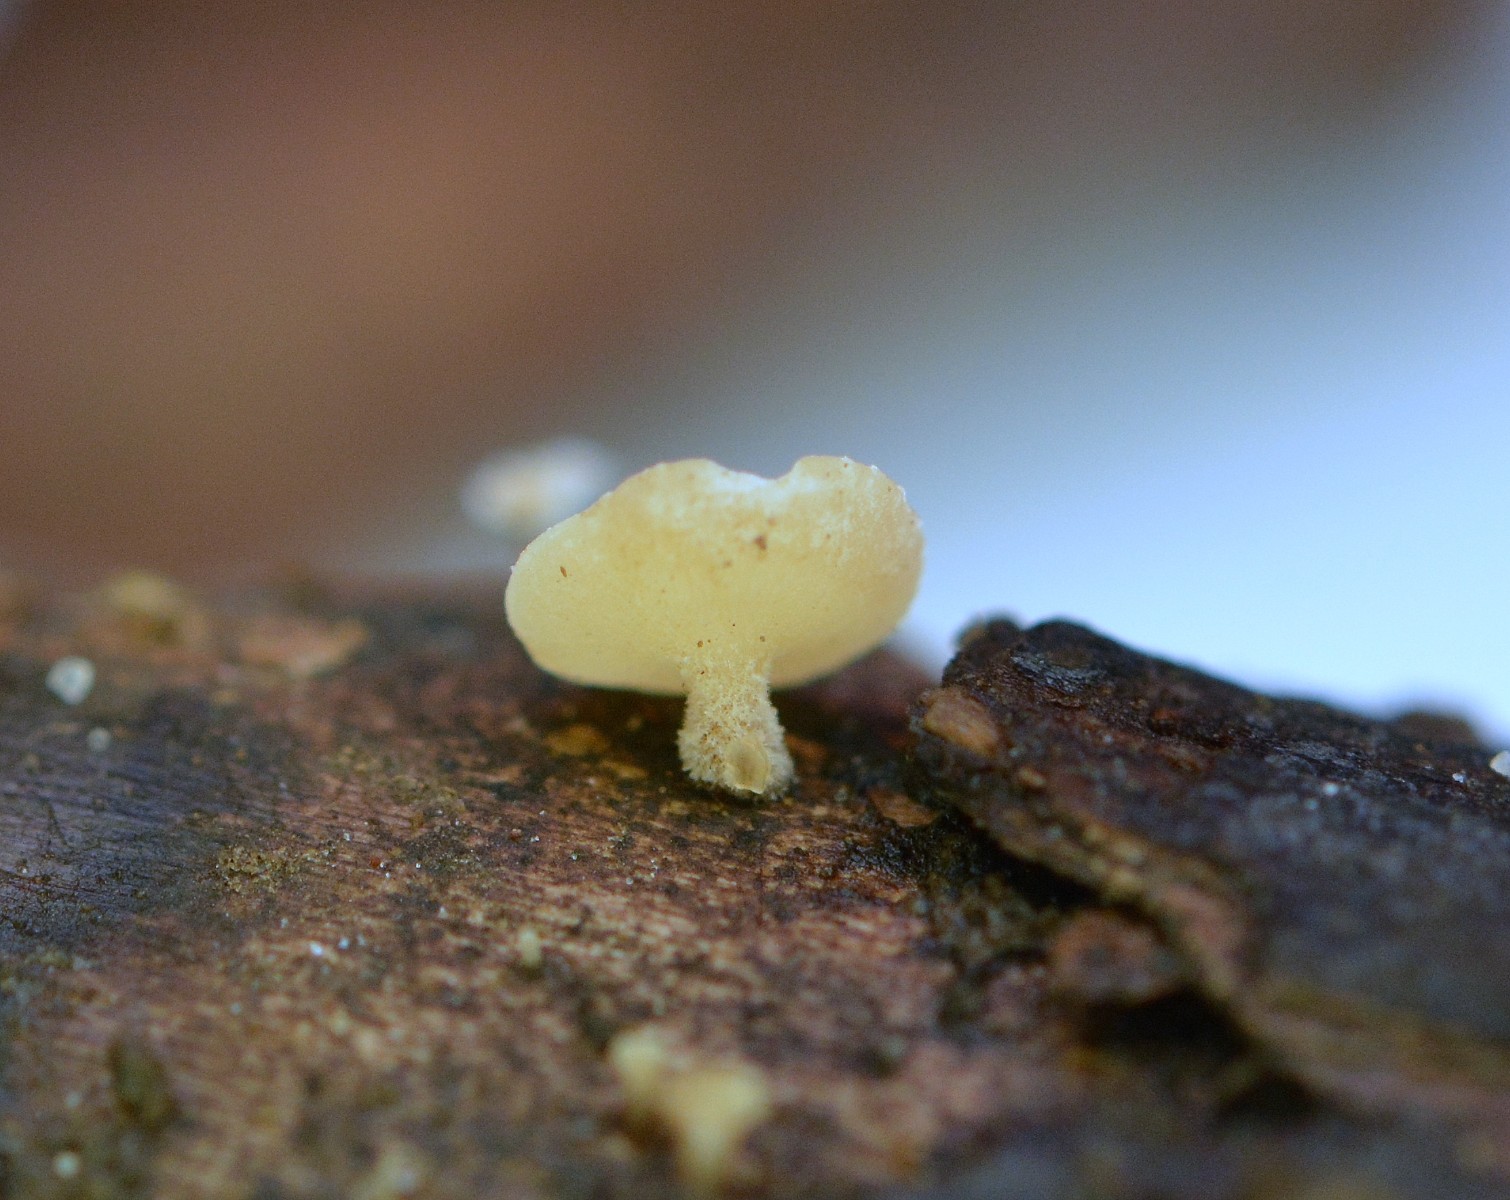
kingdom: Fungi
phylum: Ascomycota
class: Leotiomycetes
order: Helotiales
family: Helotiaceae
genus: Hymenoscyphus
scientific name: Hymenoscyphus
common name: stilkskive
